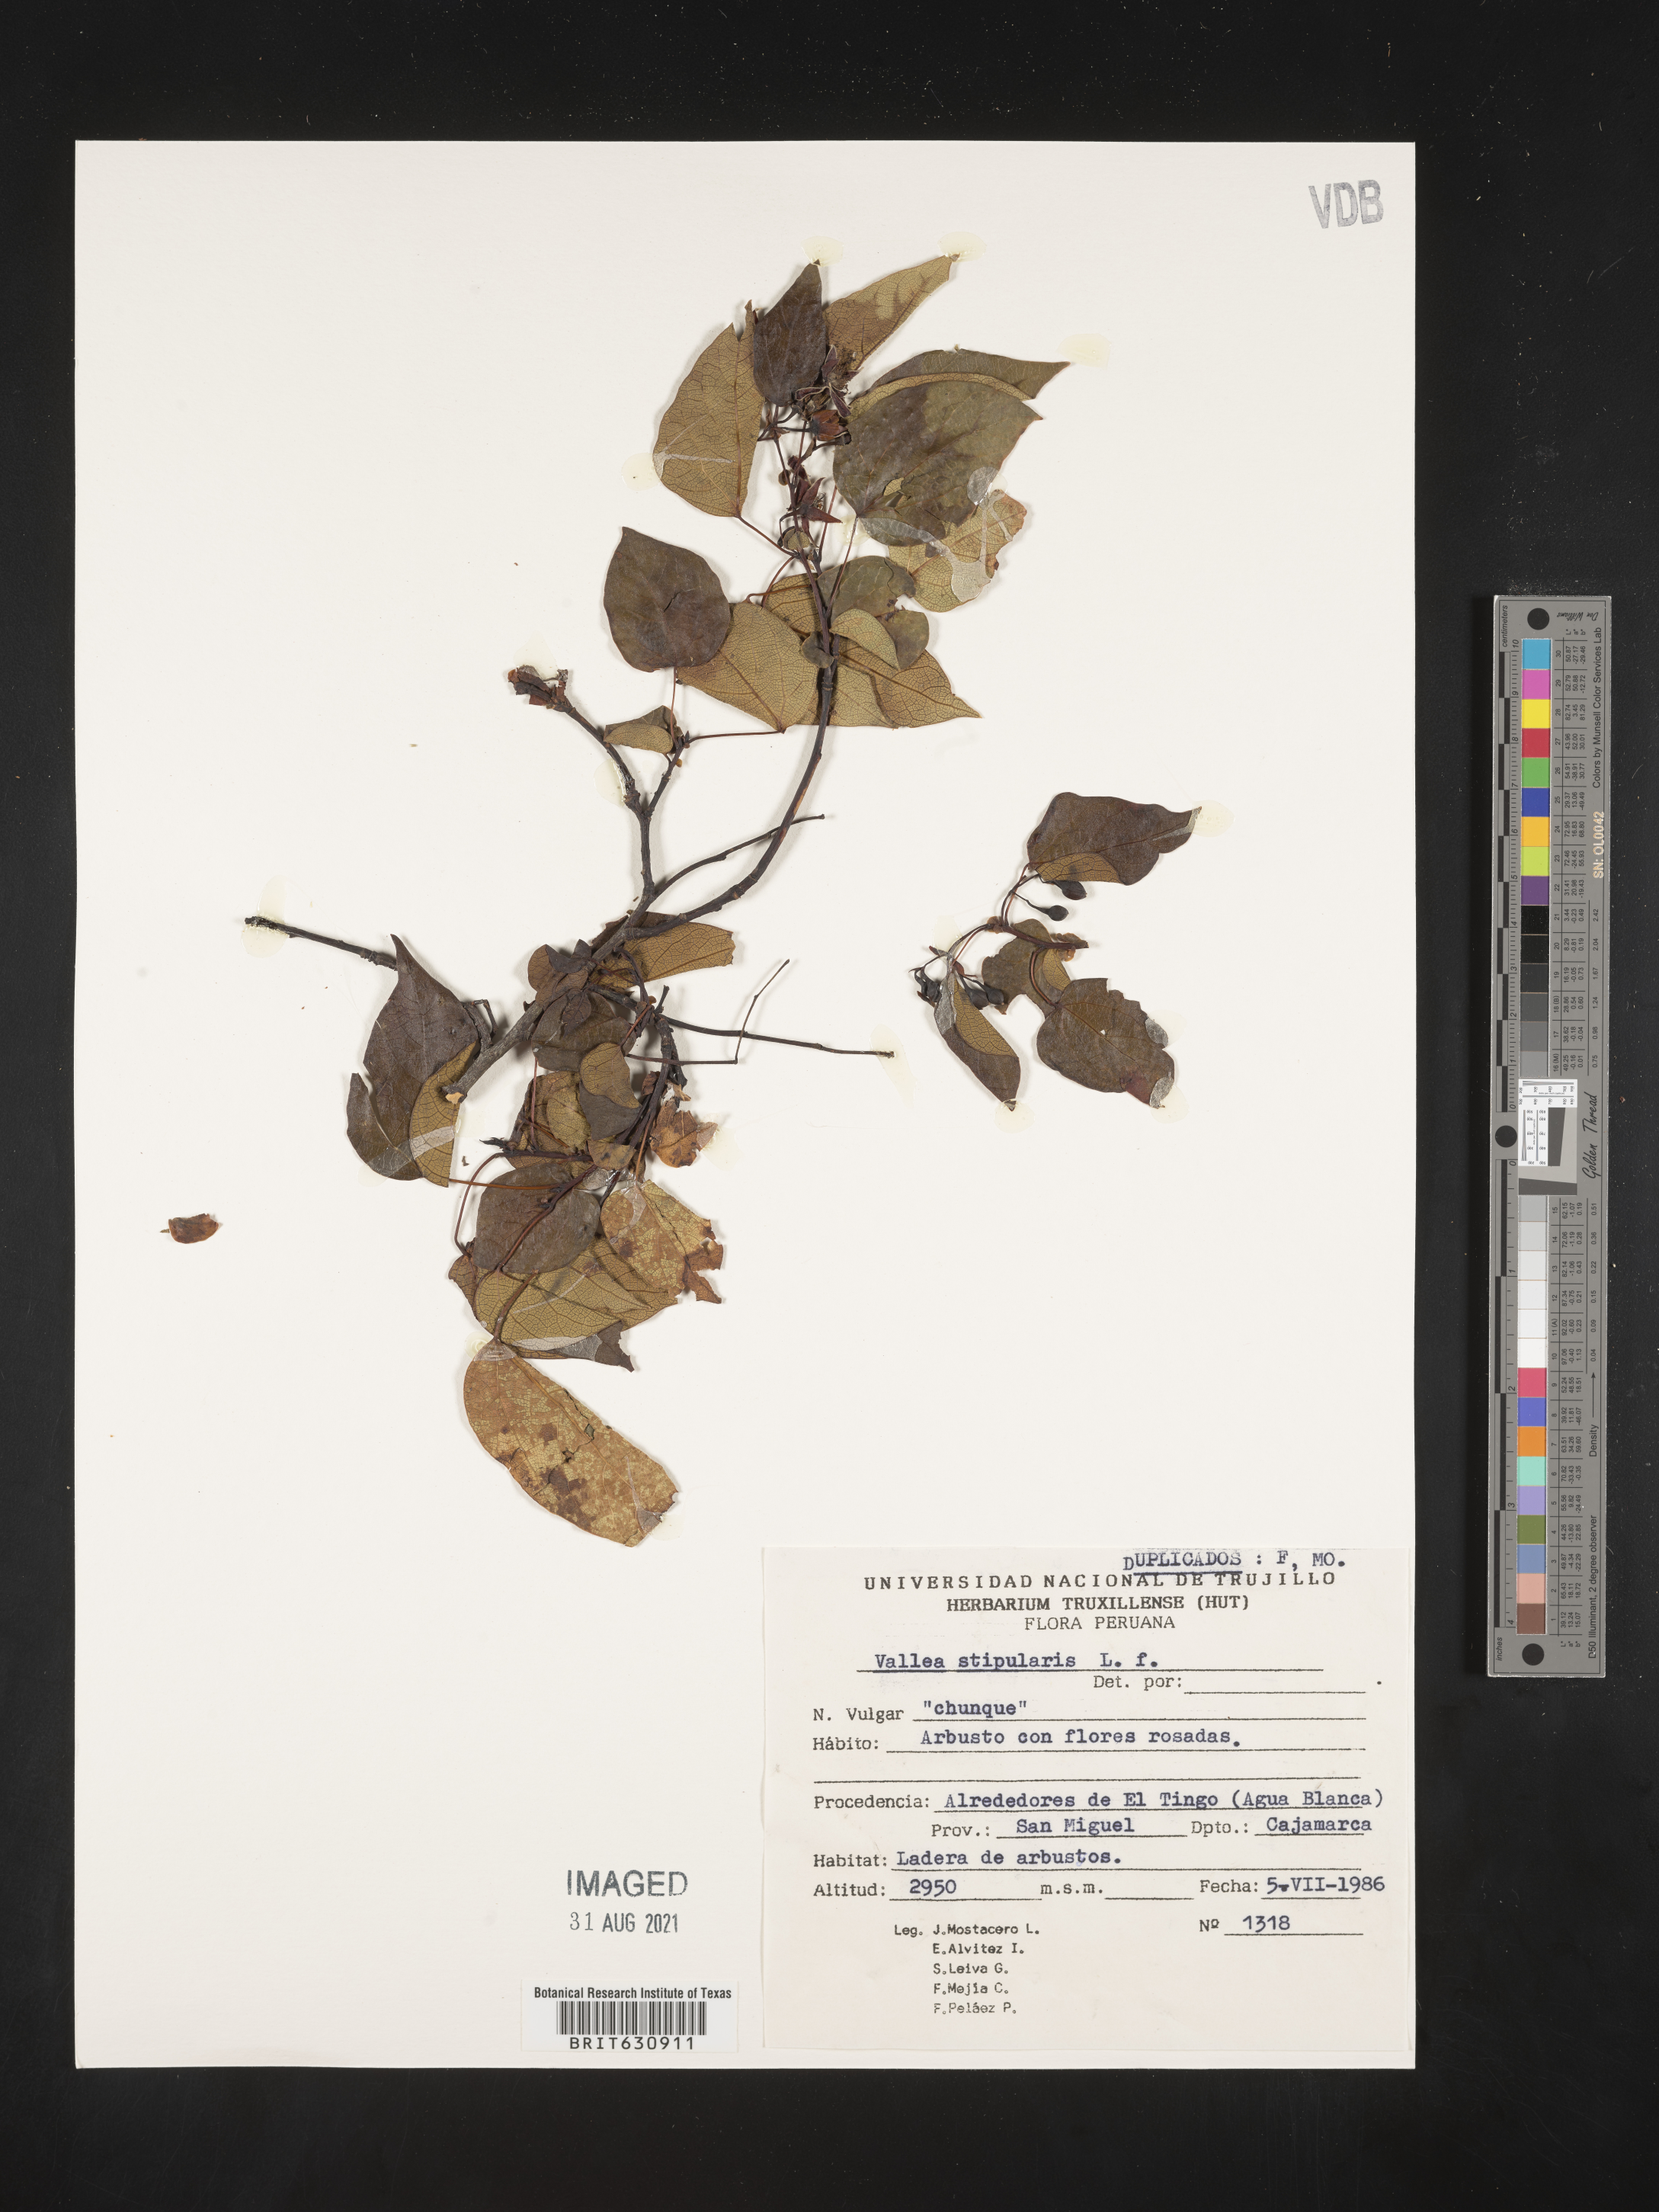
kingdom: Plantae
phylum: Tracheophyta
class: Magnoliopsida
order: Oxalidales
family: Elaeocarpaceae
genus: Sloanea
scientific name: Sloanea
